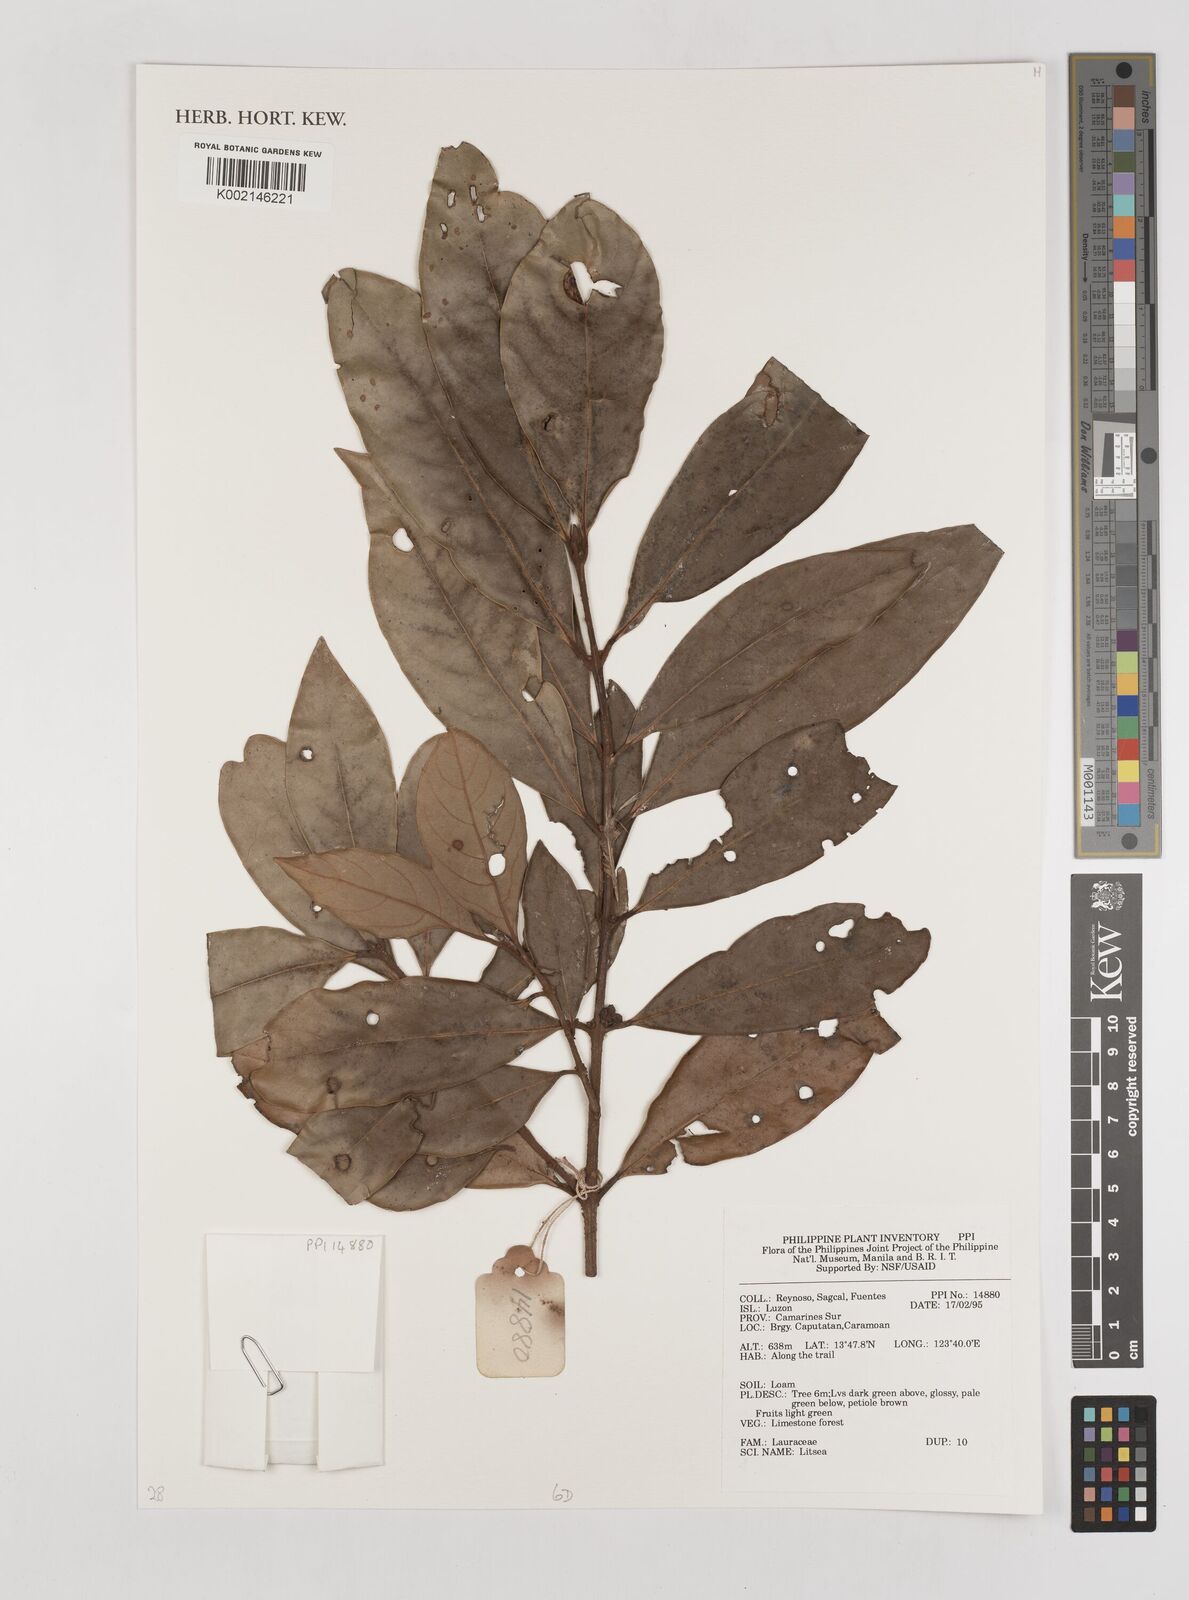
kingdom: Plantae
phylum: Tracheophyta
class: Magnoliopsida
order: Laurales
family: Lauraceae
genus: Litsea
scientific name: Litsea
